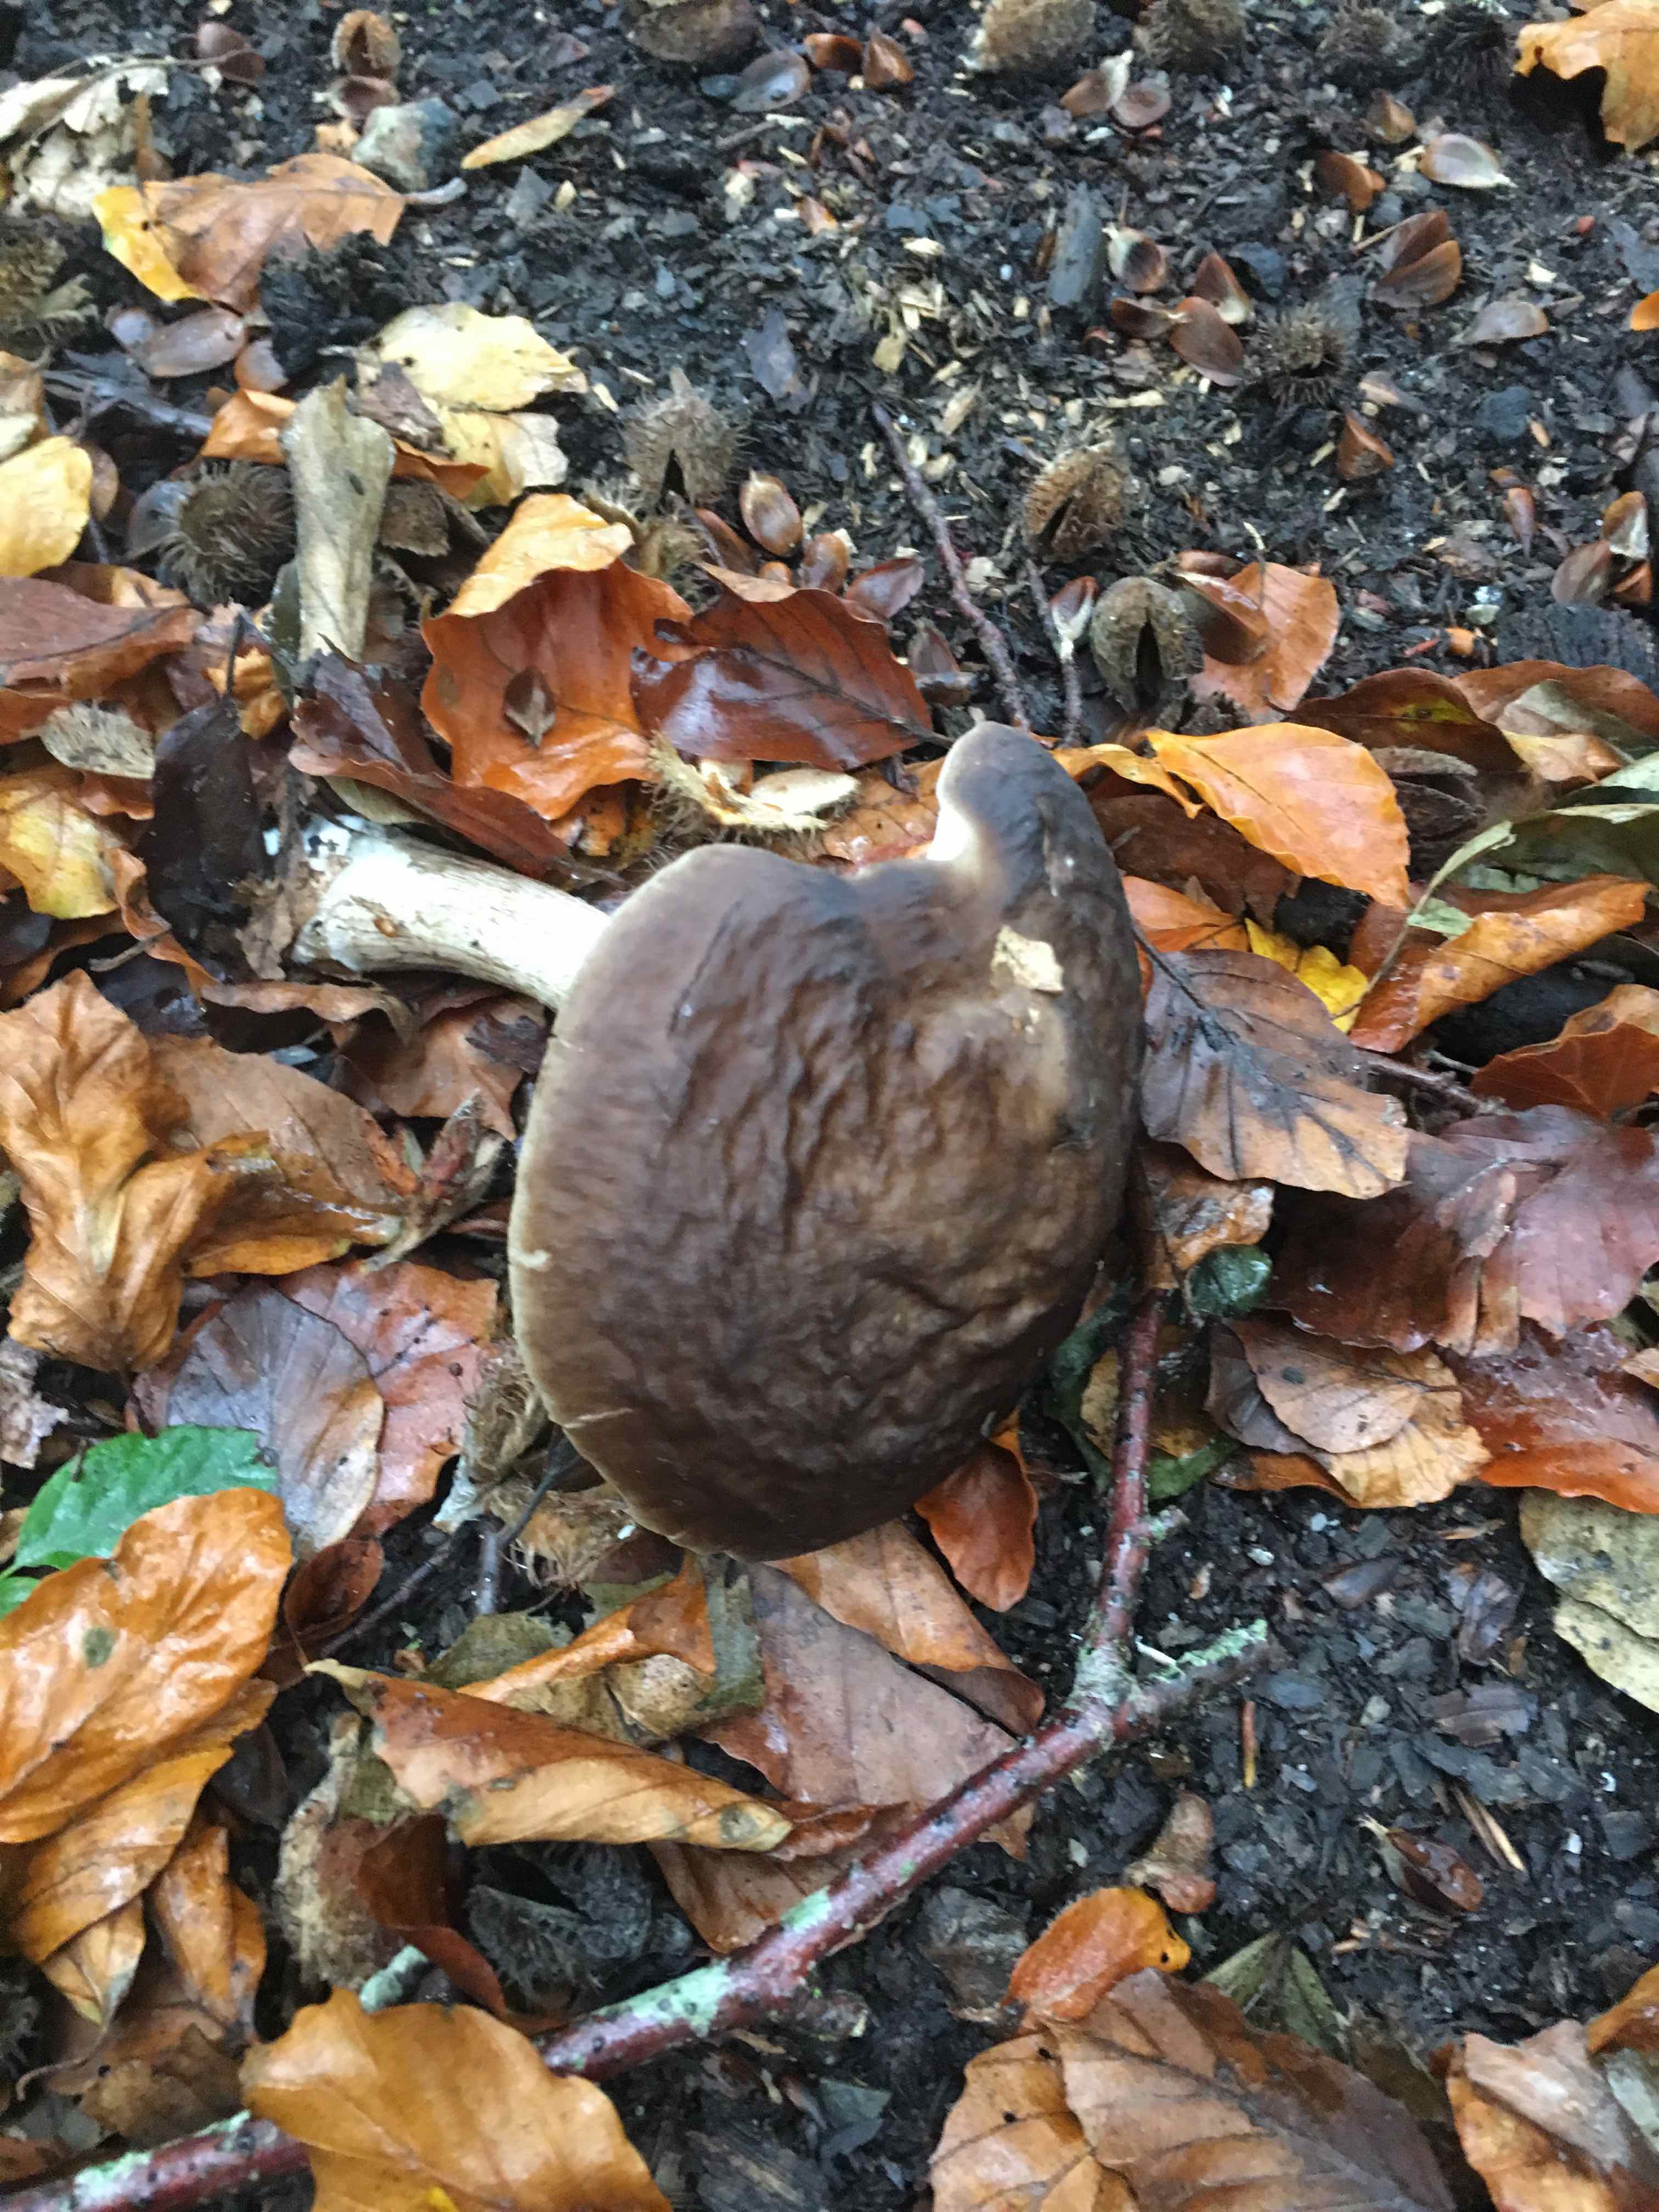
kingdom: Fungi
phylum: Basidiomycota
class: Agaricomycetes
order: Agaricales
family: Pluteaceae
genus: Pluteus
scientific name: Pluteus cervinus
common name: sodfarvet skærmhat
